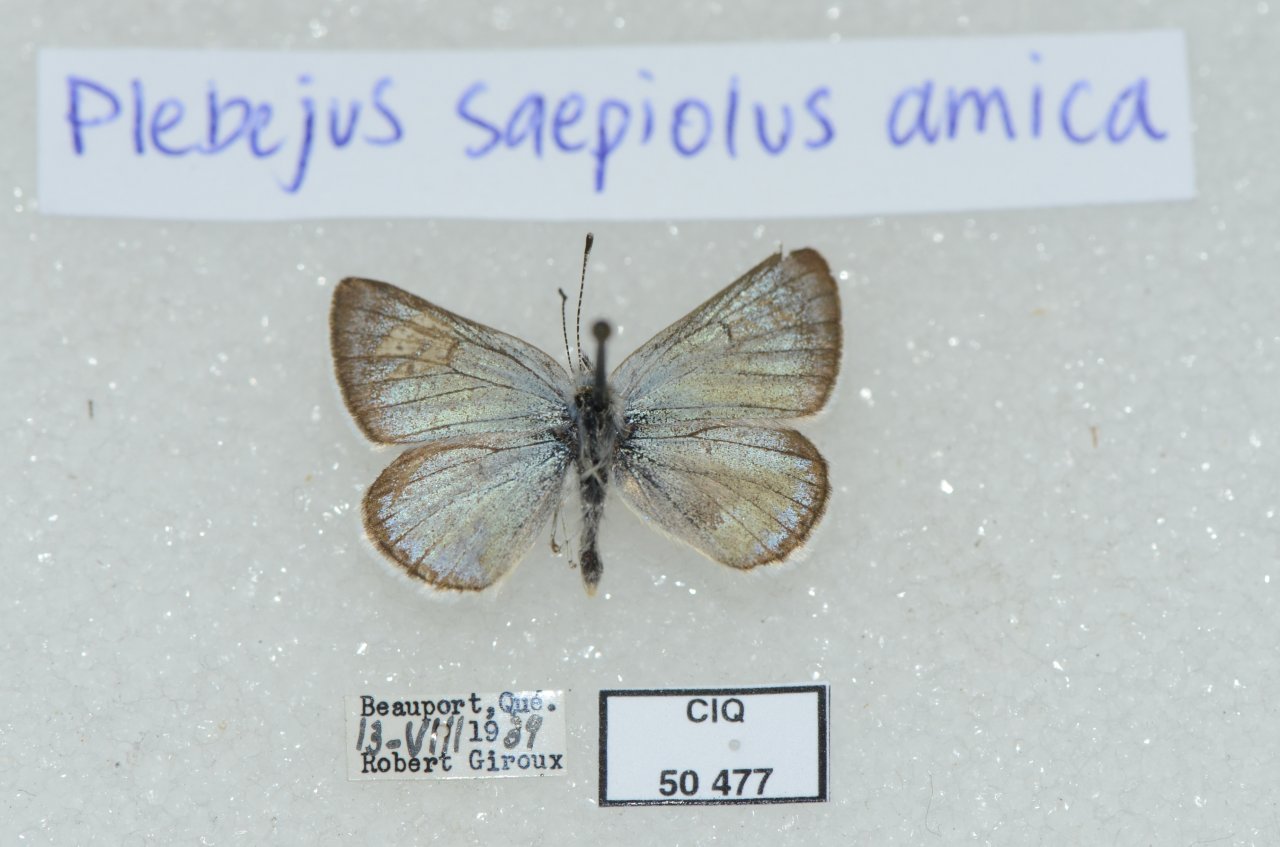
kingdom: Animalia
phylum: Arthropoda
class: Insecta
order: Lepidoptera
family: Lycaenidae
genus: Plebejus
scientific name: Plebejus saepiolus
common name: Greenish Blue
